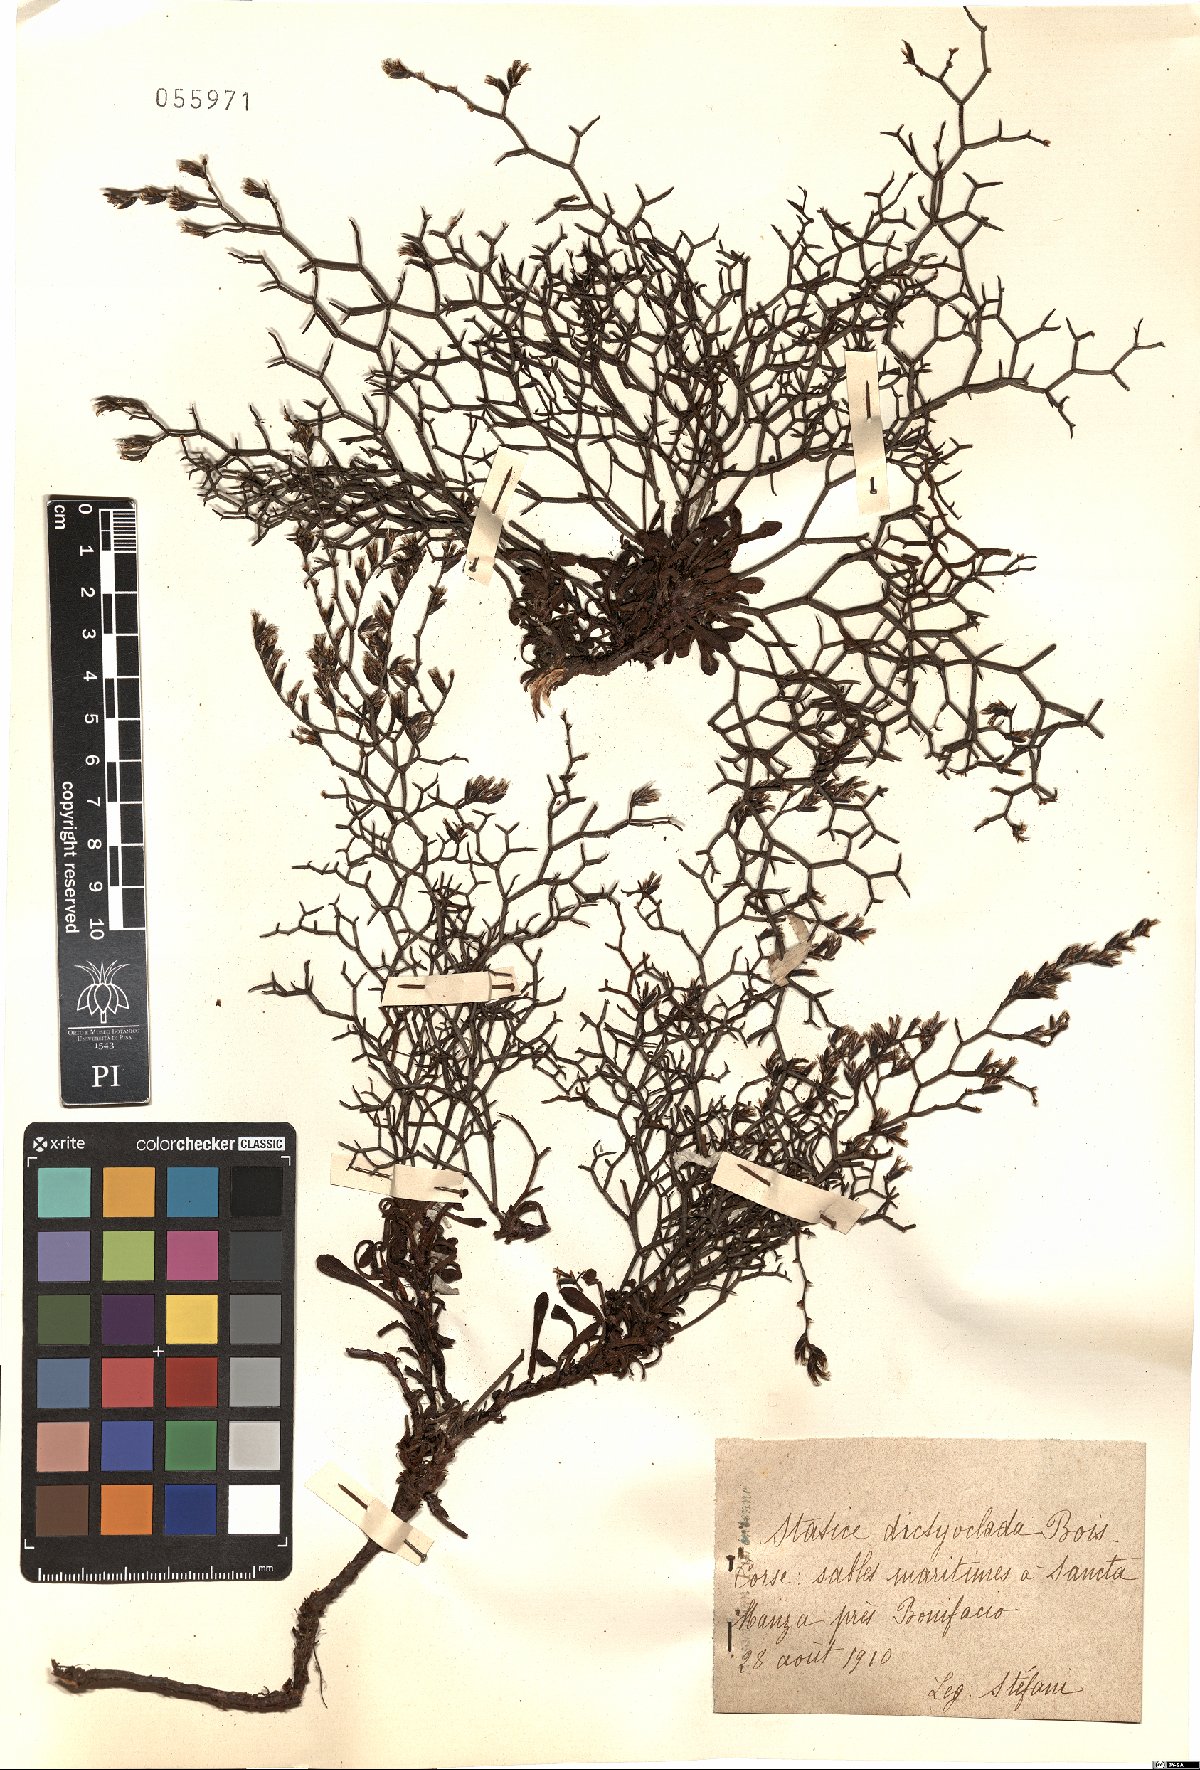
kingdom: Plantae
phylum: Tracheophyta
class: Magnoliopsida
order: Caryophyllales
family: Plumbaginaceae
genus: Saharanthus
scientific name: Saharanthus ifniensis
